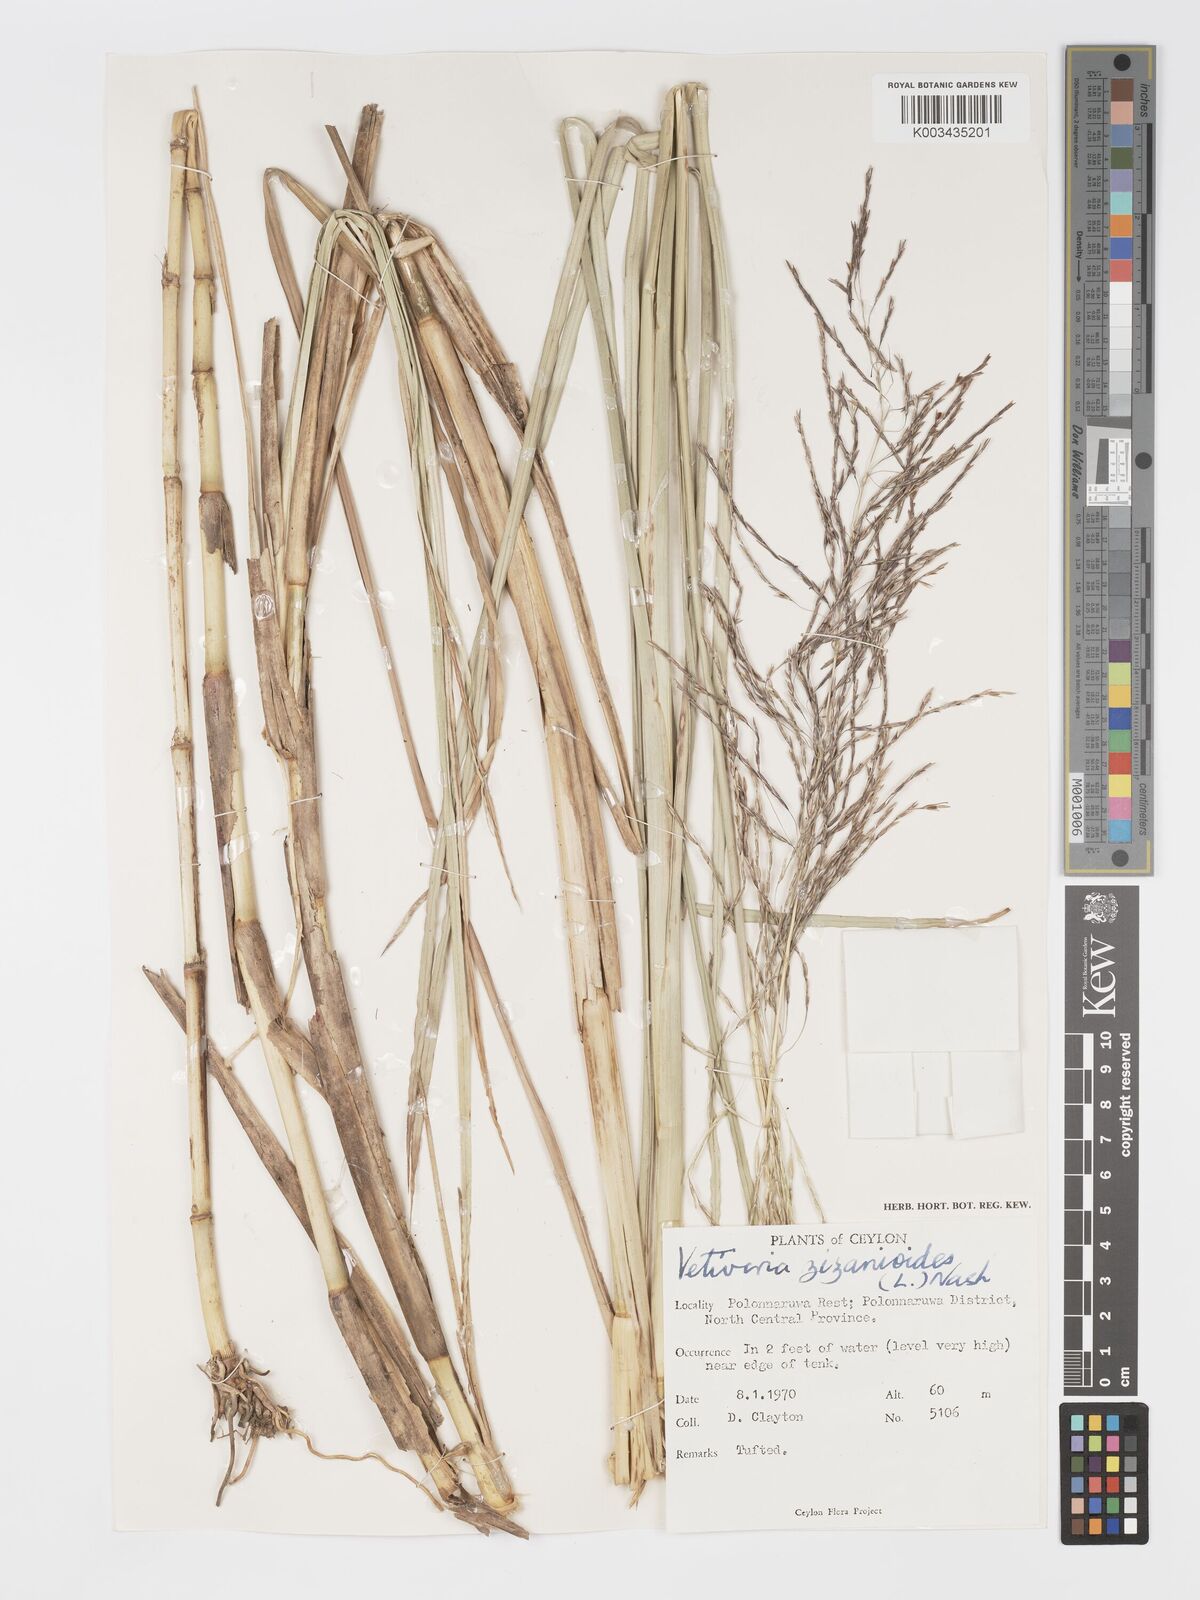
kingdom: Plantae
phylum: Tracheophyta
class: Liliopsida
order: Poales
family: Poaceae
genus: Chrysopogon
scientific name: Chrysopogon zizanioides
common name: False beardgrass
